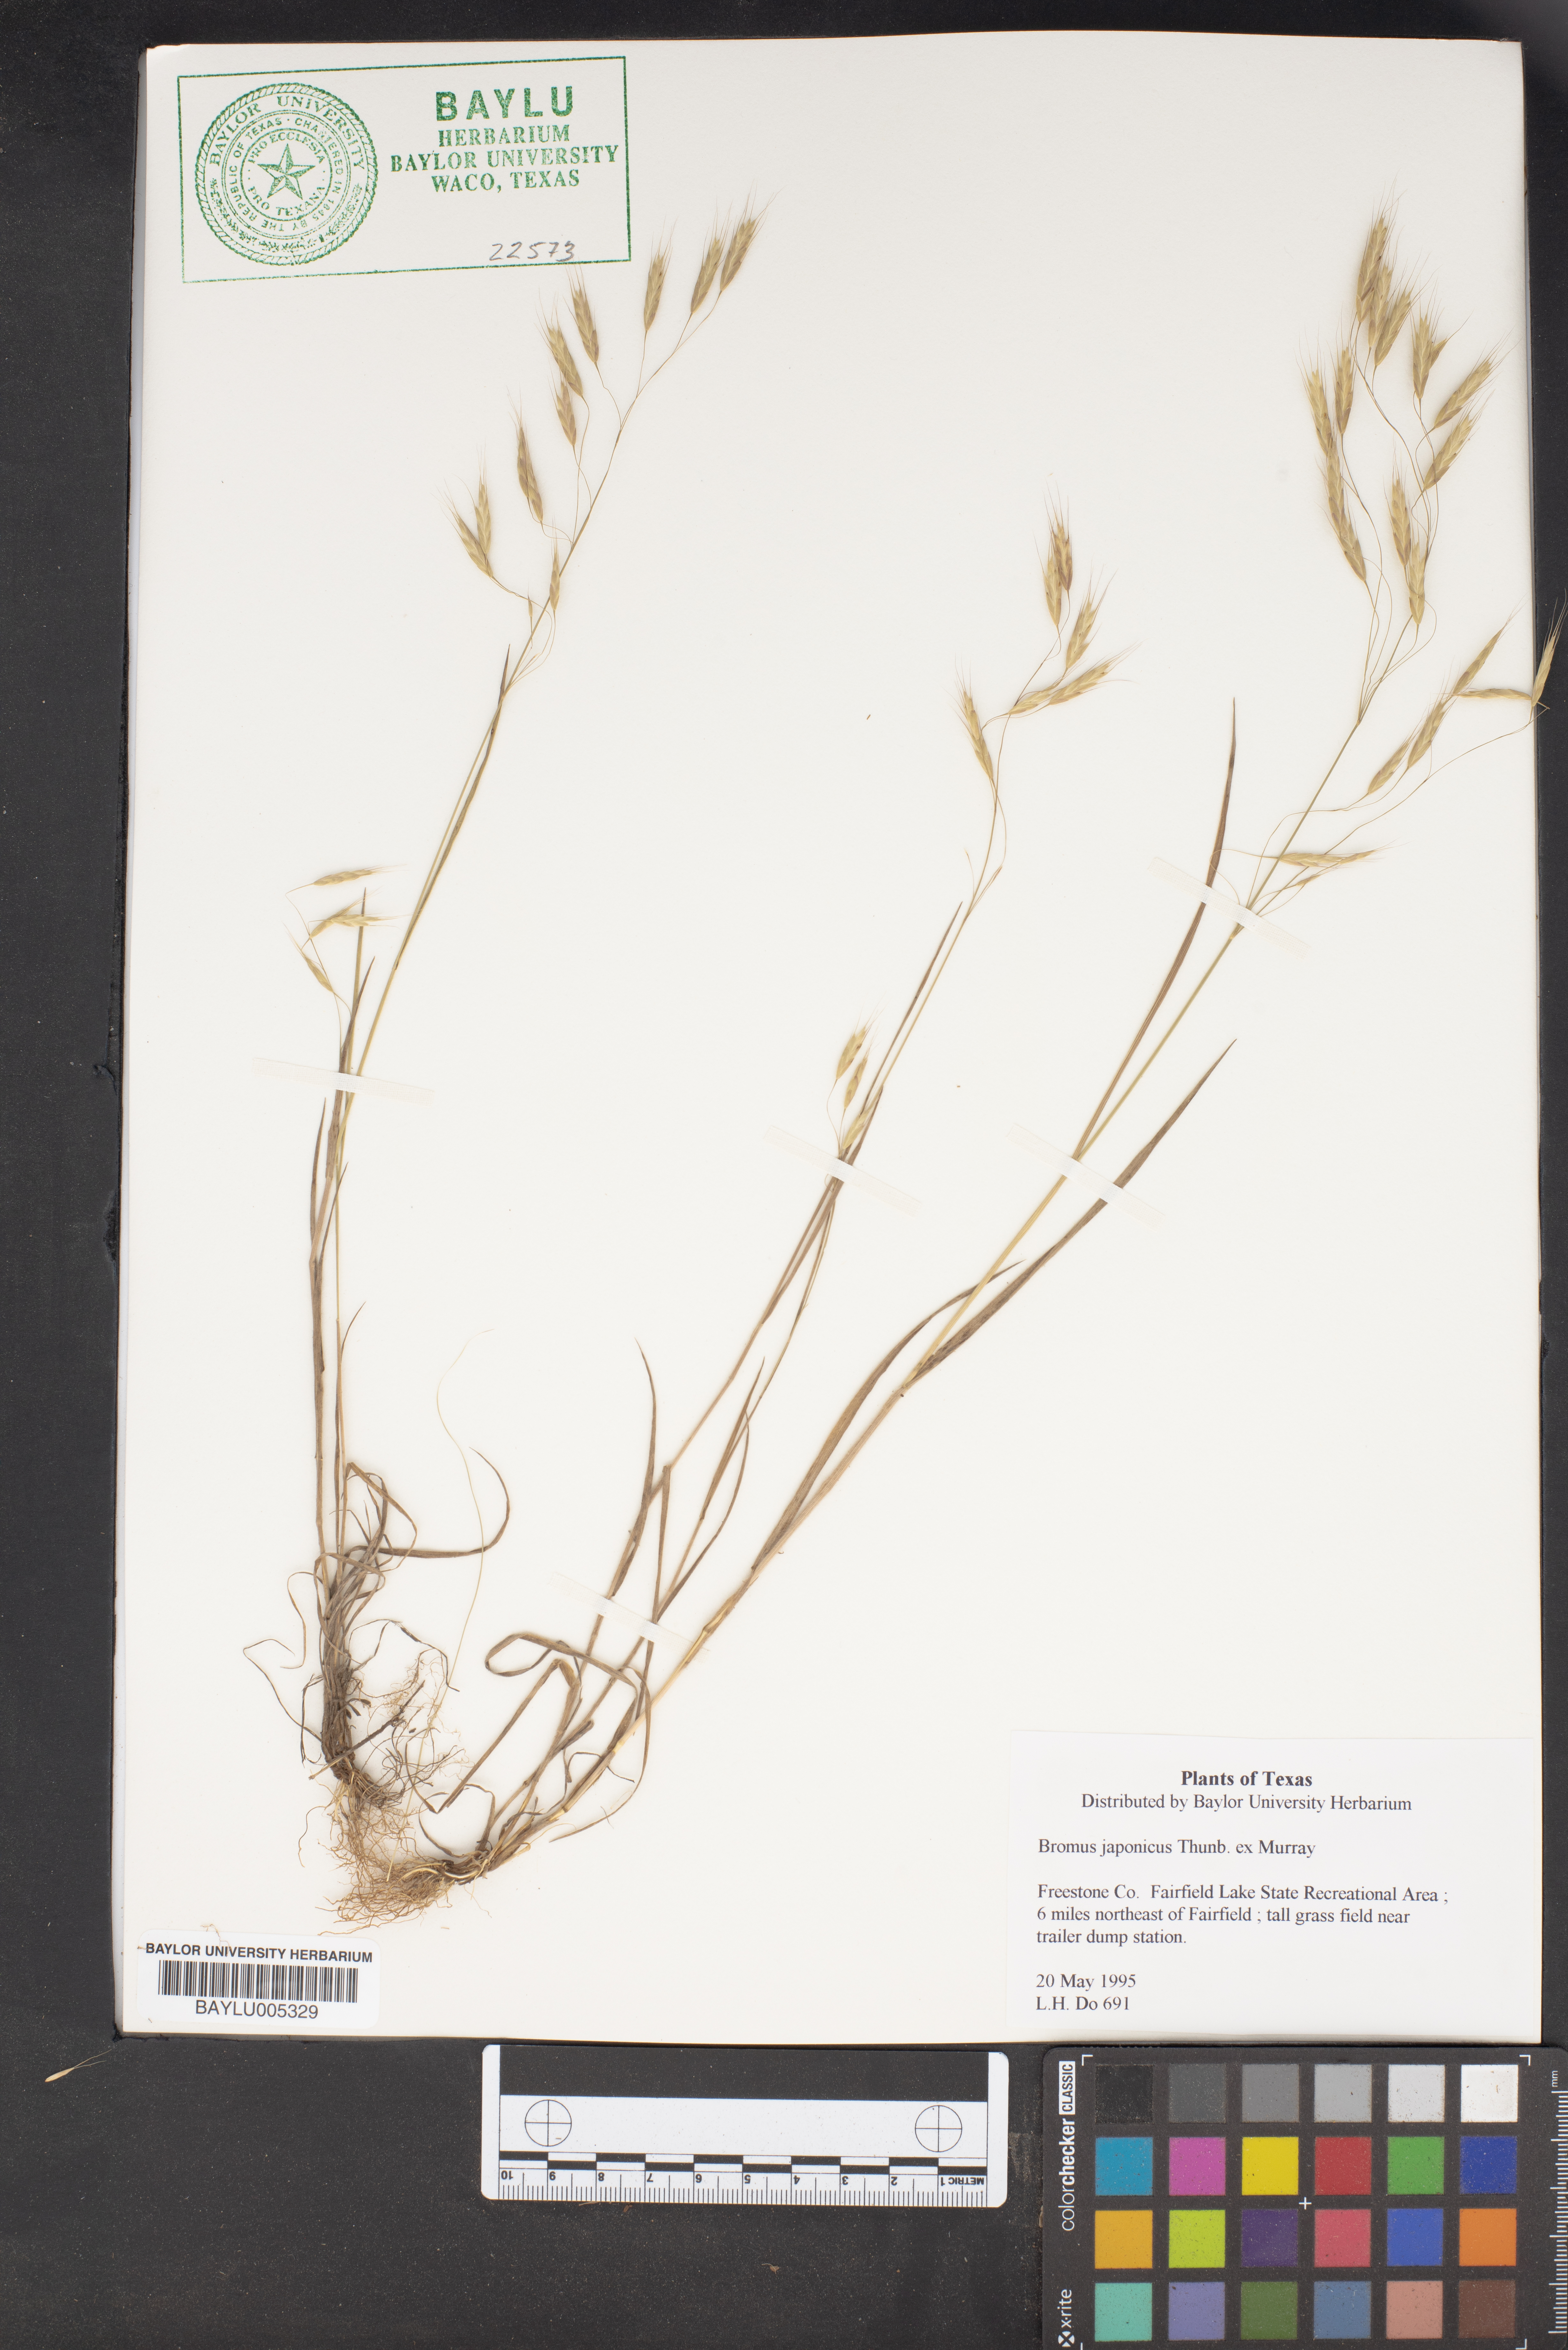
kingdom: Plantae
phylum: Tracheophyta
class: Liliopsida
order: Poales
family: Poaceae
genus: Bromus
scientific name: Bromus japonicus
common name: Japanese brome
